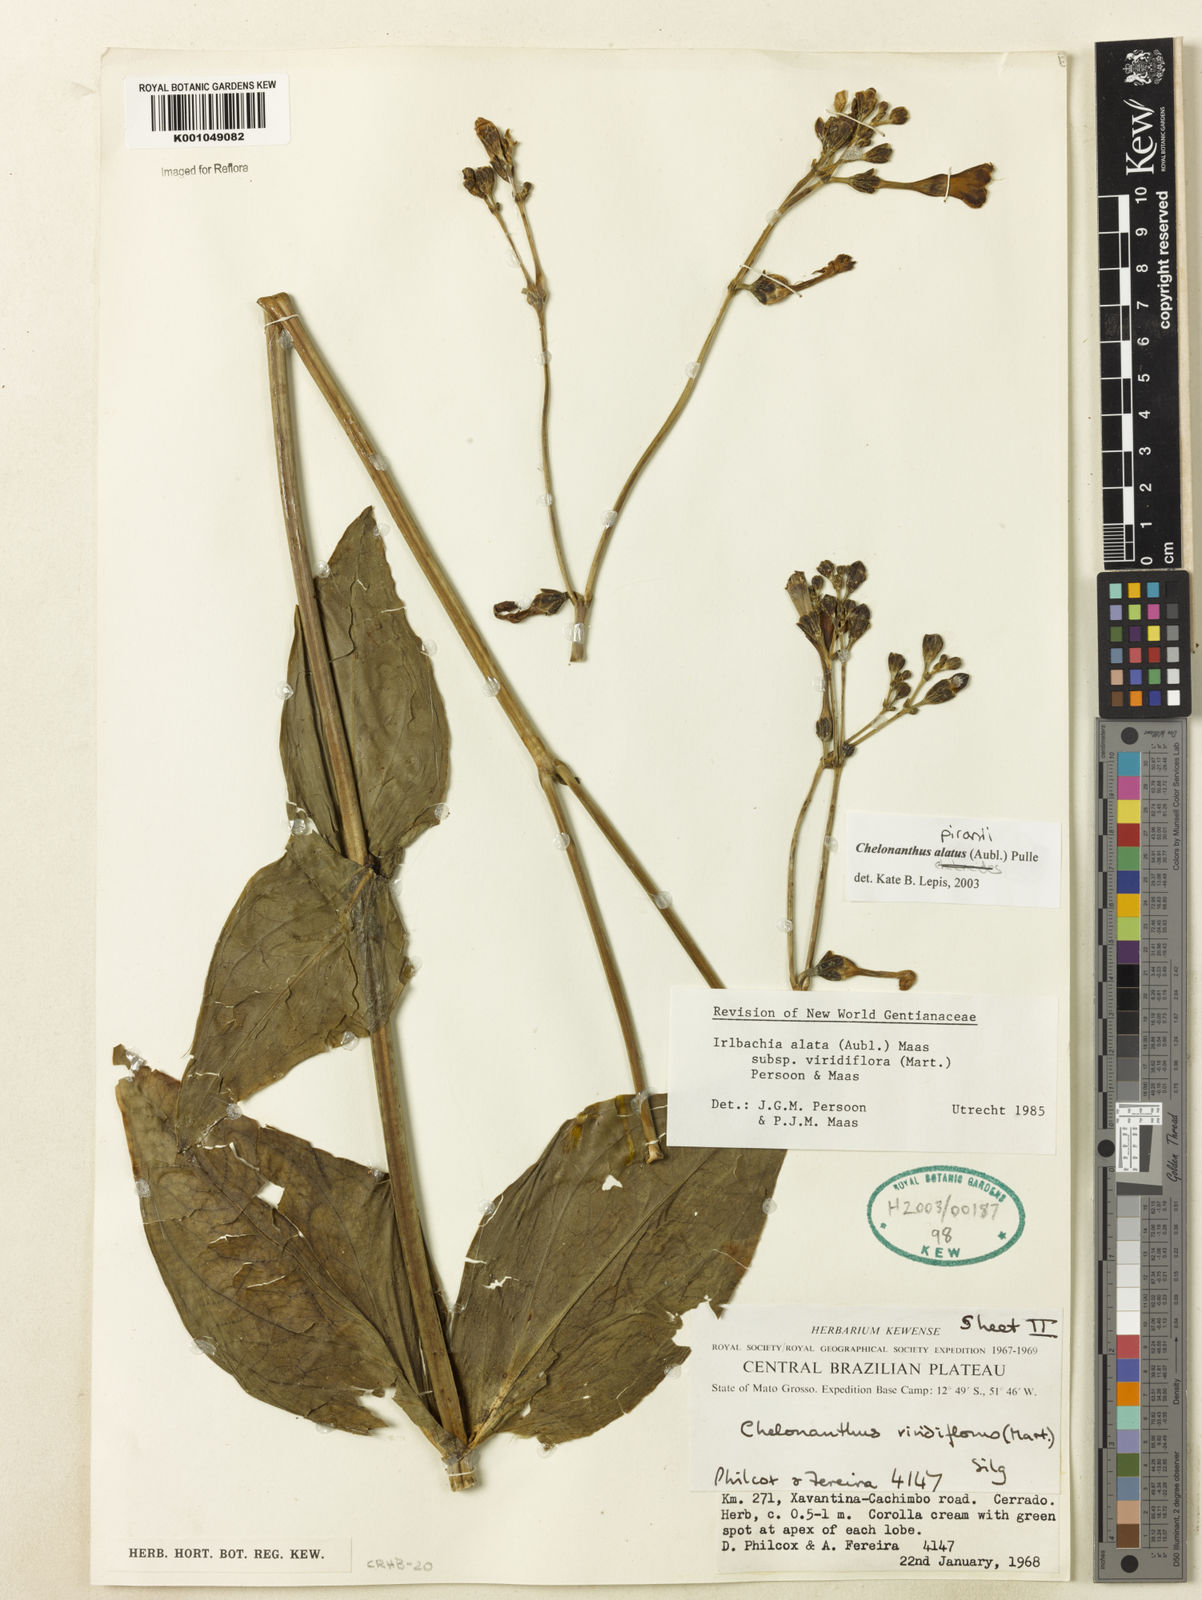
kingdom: Plantae
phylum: Tracheophyta
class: Magnoliopsida
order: Gentianales
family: Gentianaceae
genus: Chelonanthus
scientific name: Chelonanthus alatus
